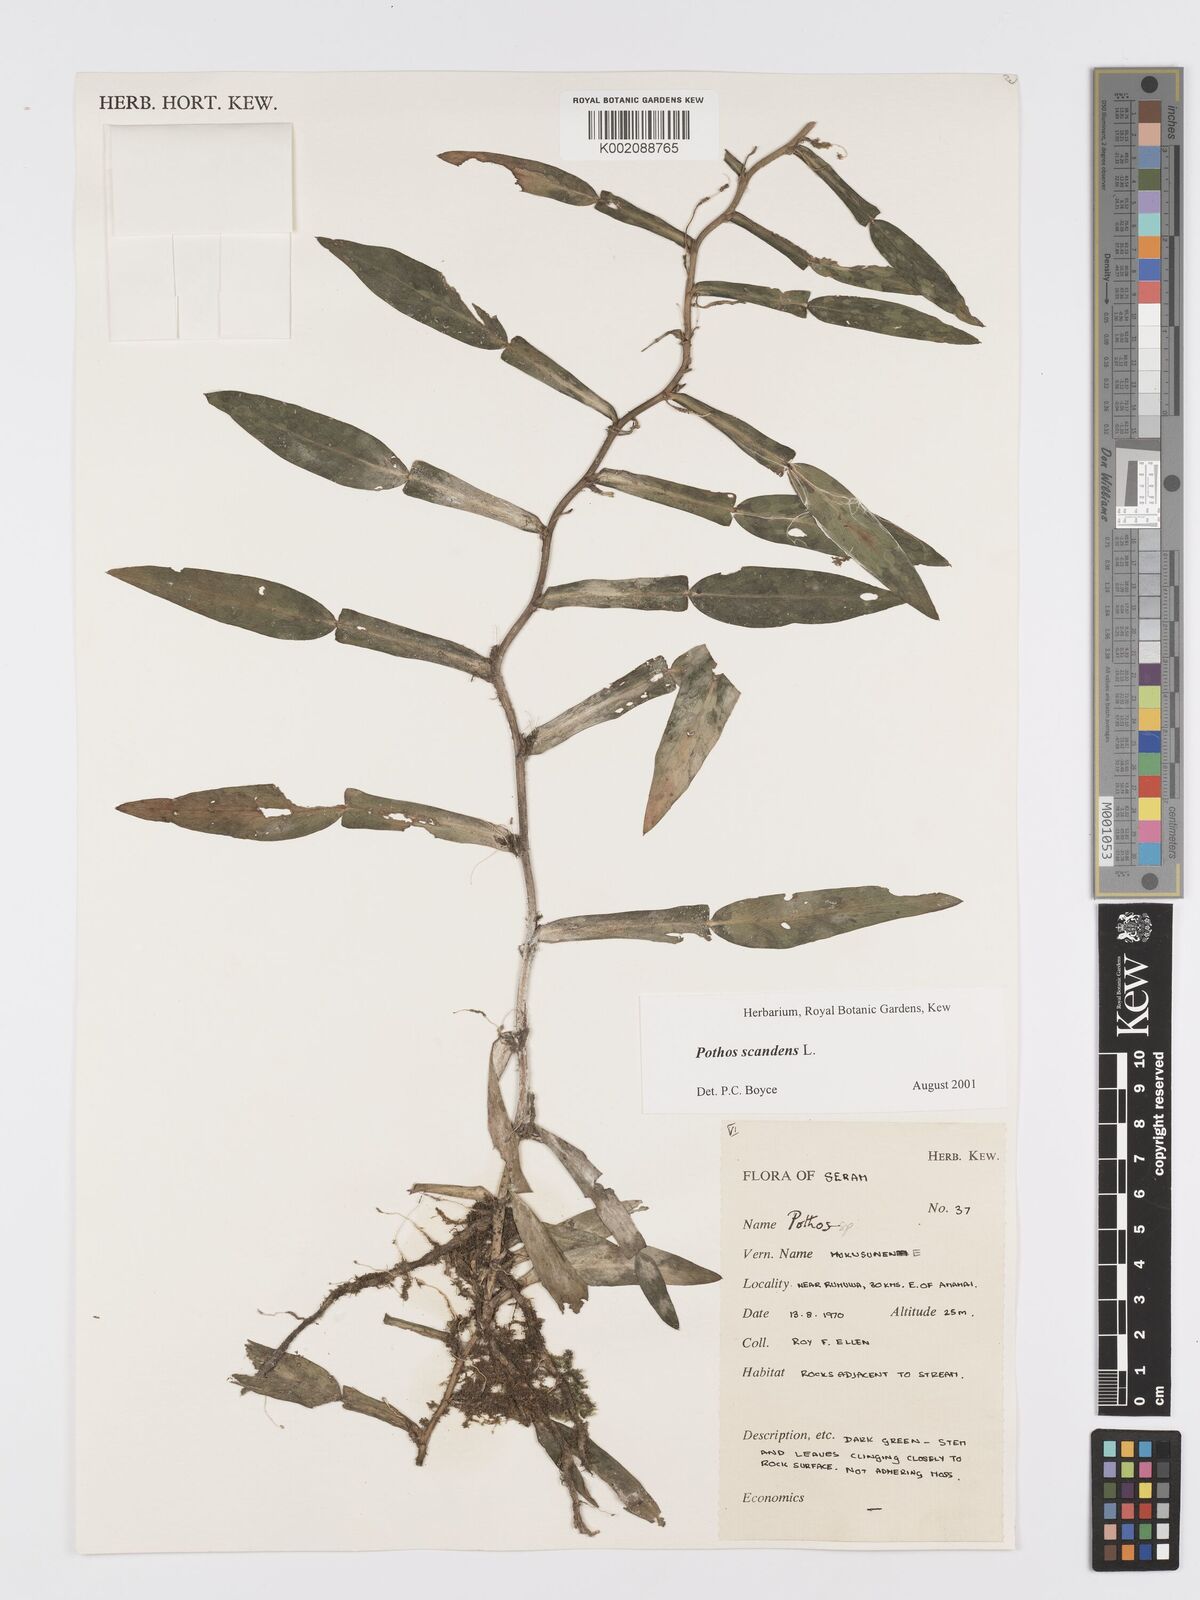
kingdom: Plantae
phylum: Tracheophyta
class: Liliopsida
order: Alismatales
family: Araceae
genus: Pothos
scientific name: Pothos scandens
